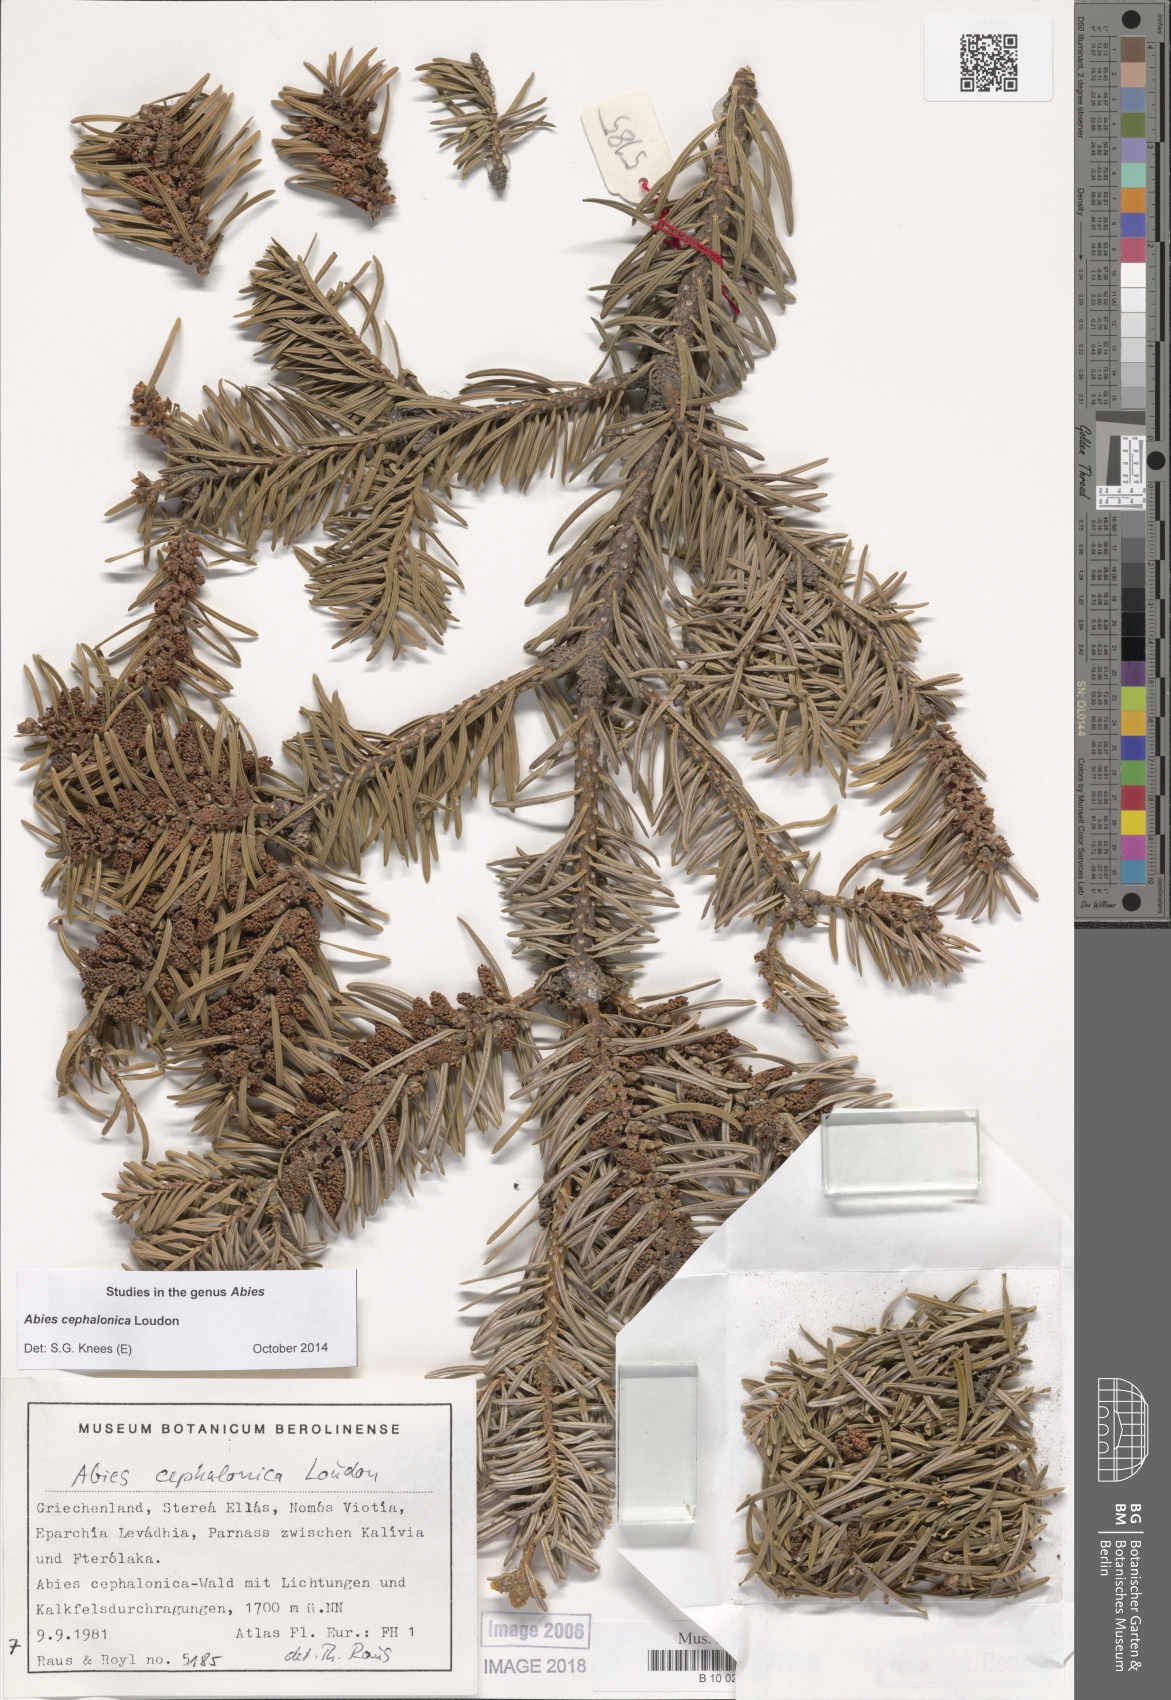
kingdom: Plantae
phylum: Tracheophyta
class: Pinopsida
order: Pinales
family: Pinaceae
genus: Abies
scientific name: Abies cephalonica
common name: Greek fir
